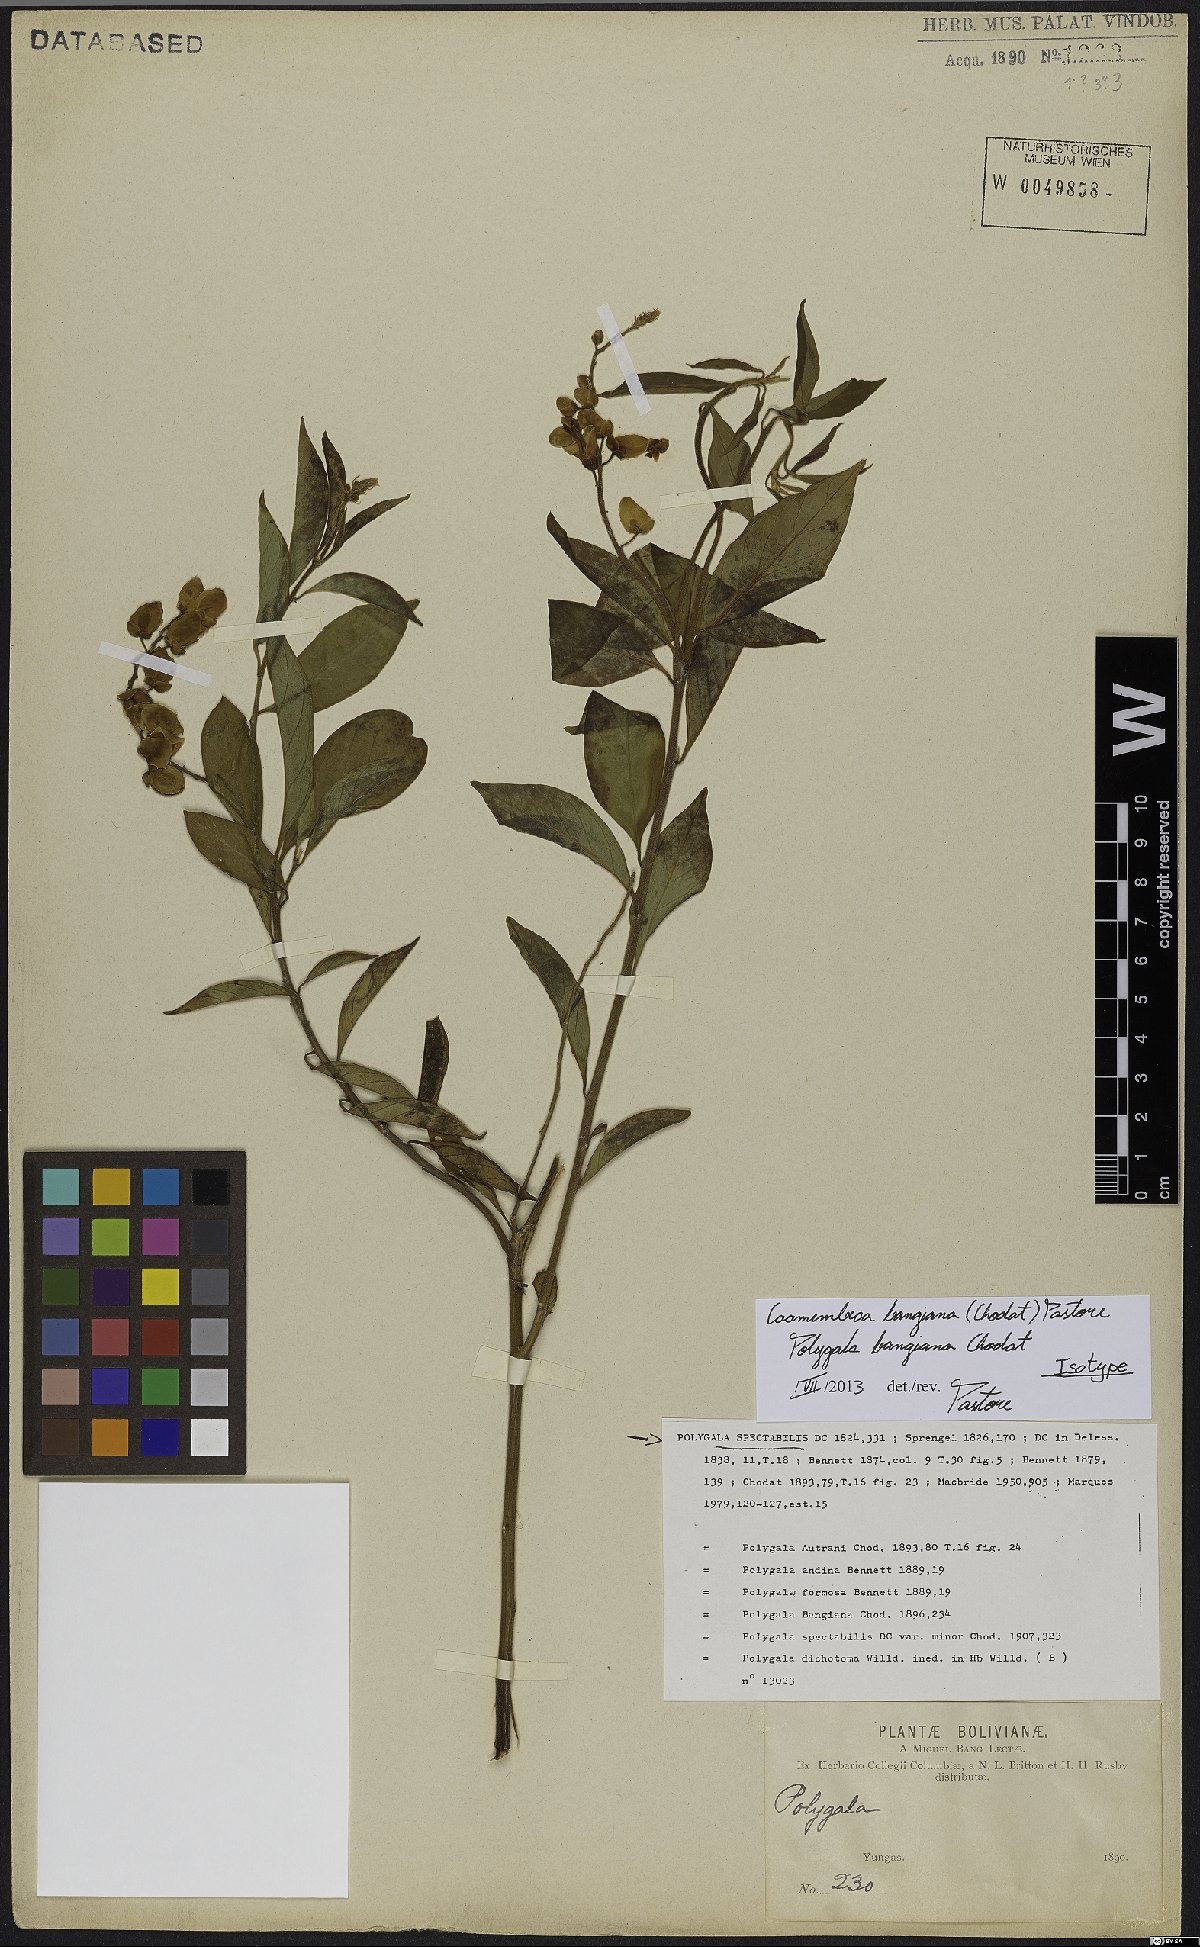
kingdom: Plantae
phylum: Tracheophyta
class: Magnoliopsida
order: Fabales
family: Polygalaceae
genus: Caamembeca
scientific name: Caamembeca andina
